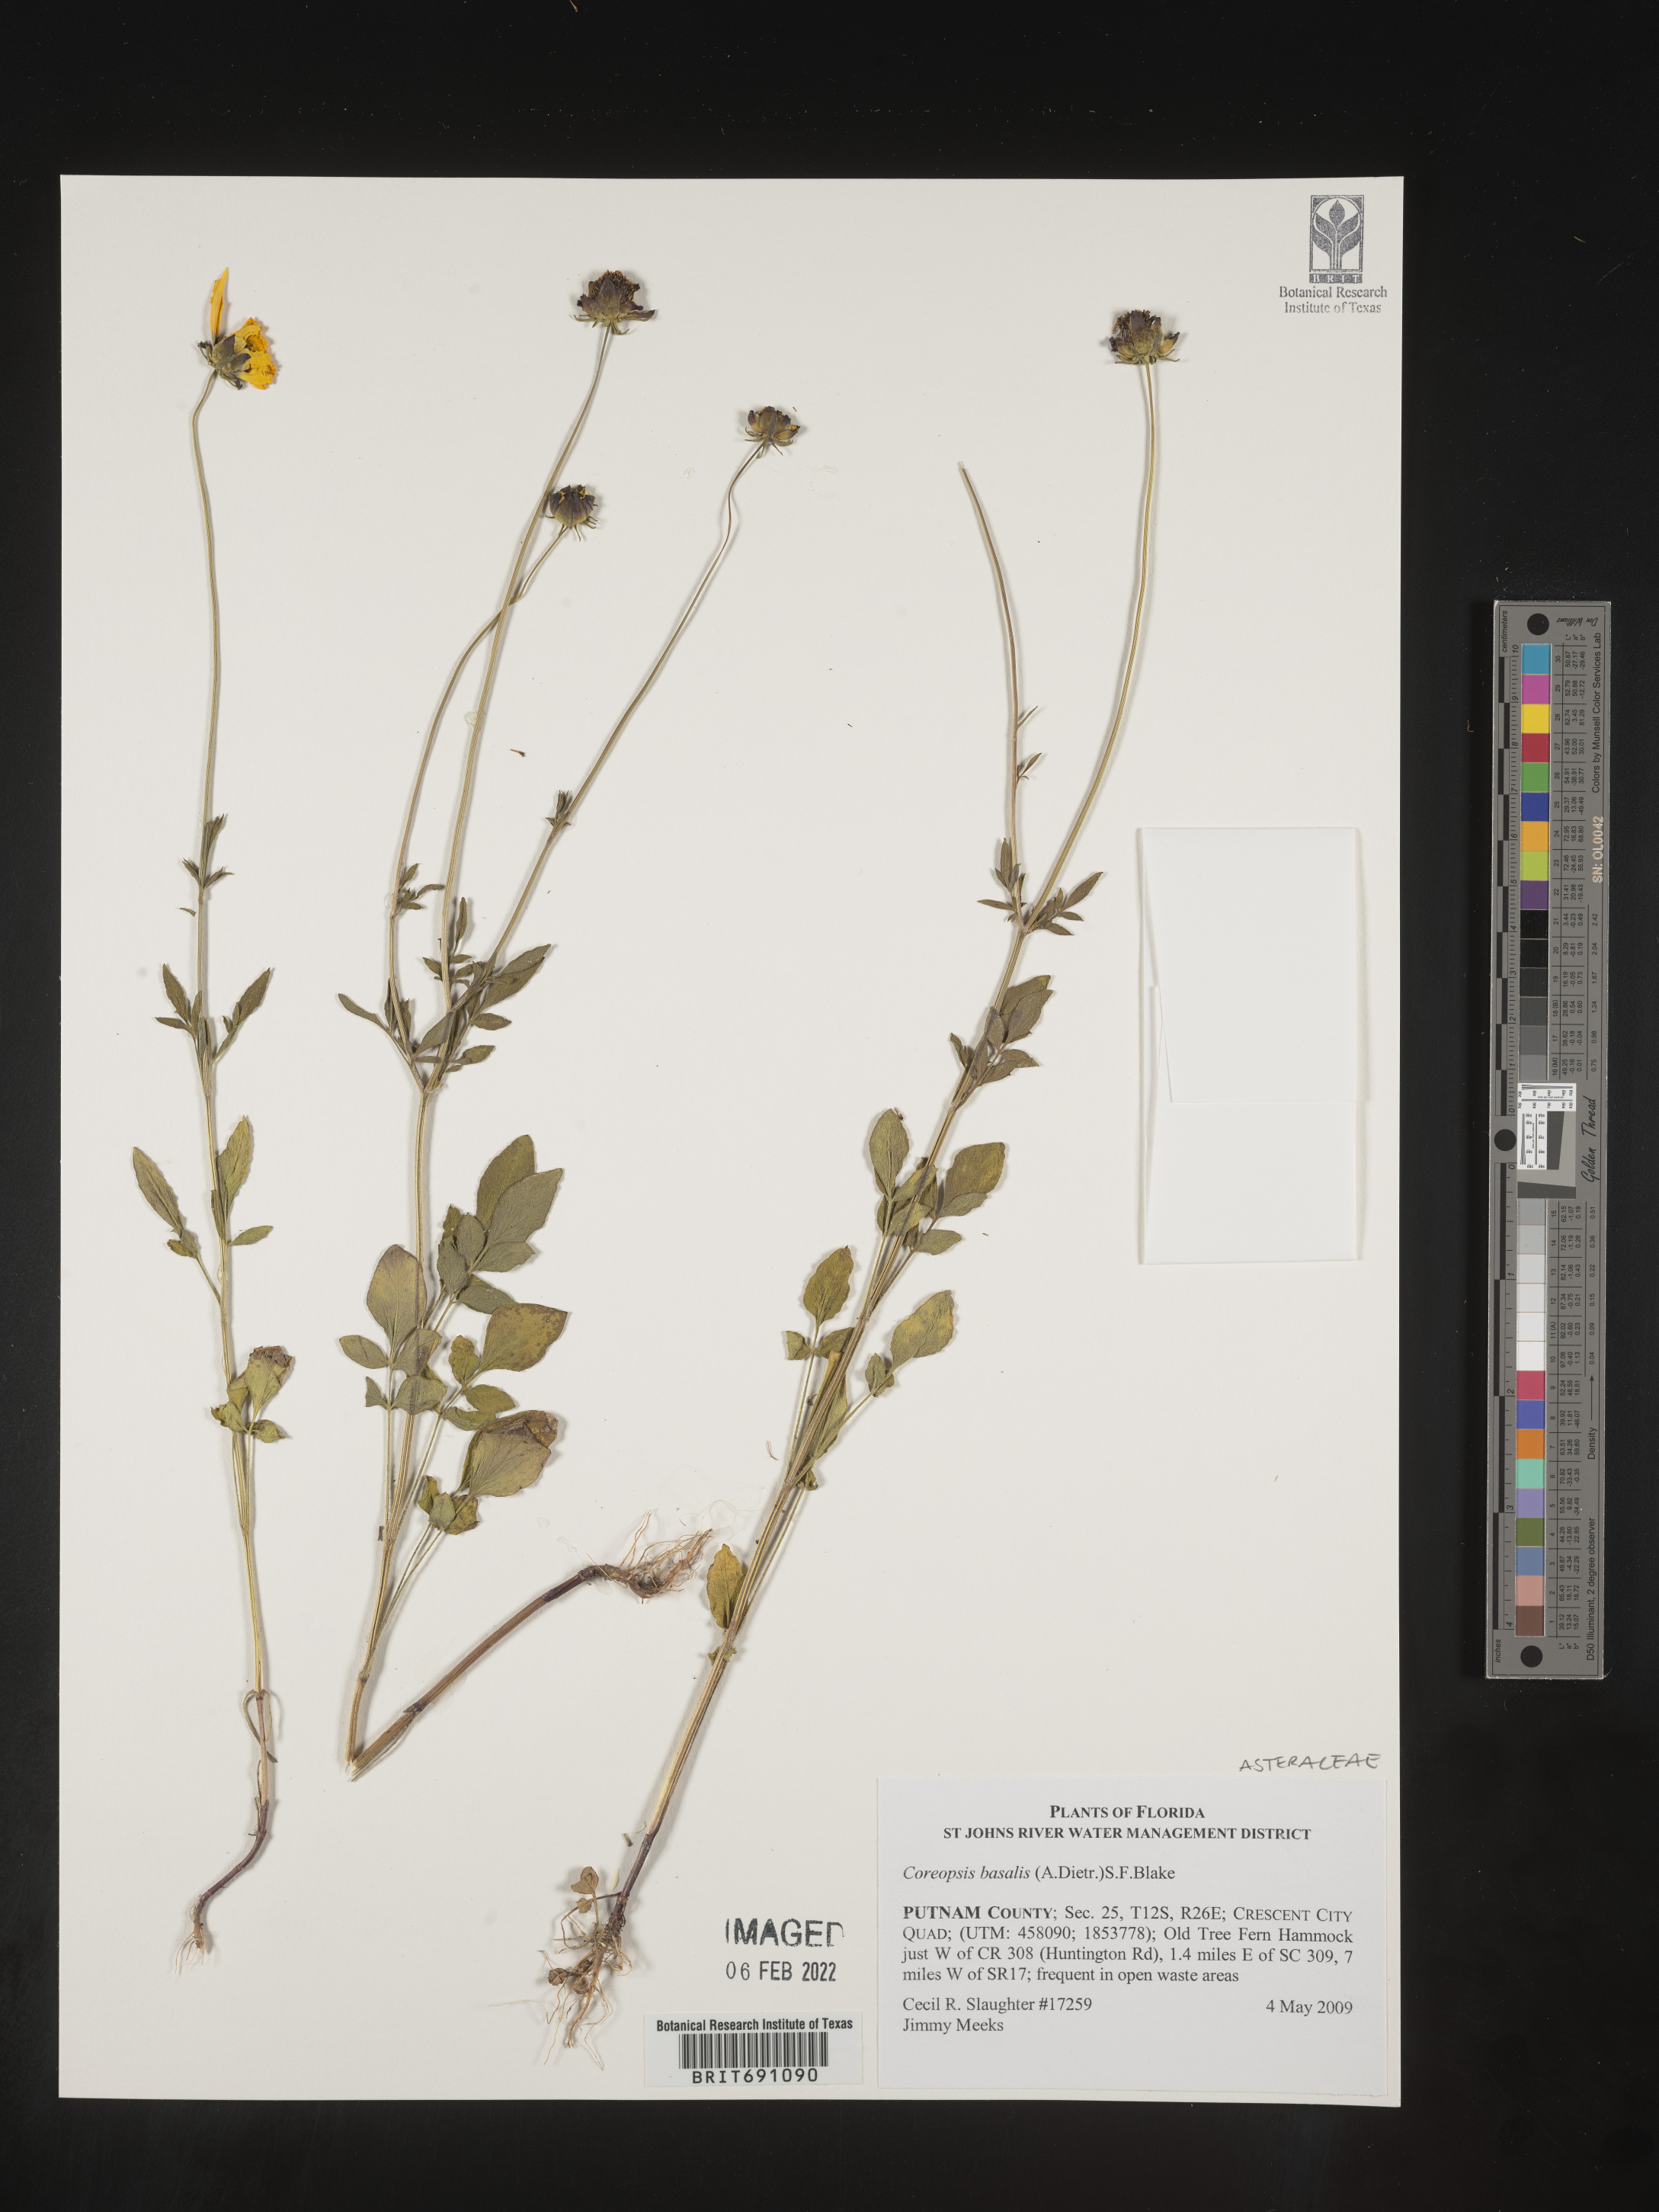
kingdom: Plantae
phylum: Tracheophyta
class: Magnoliopsida
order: Asterales
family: Asteraceae
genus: Coreopsis
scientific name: Coreopsis
